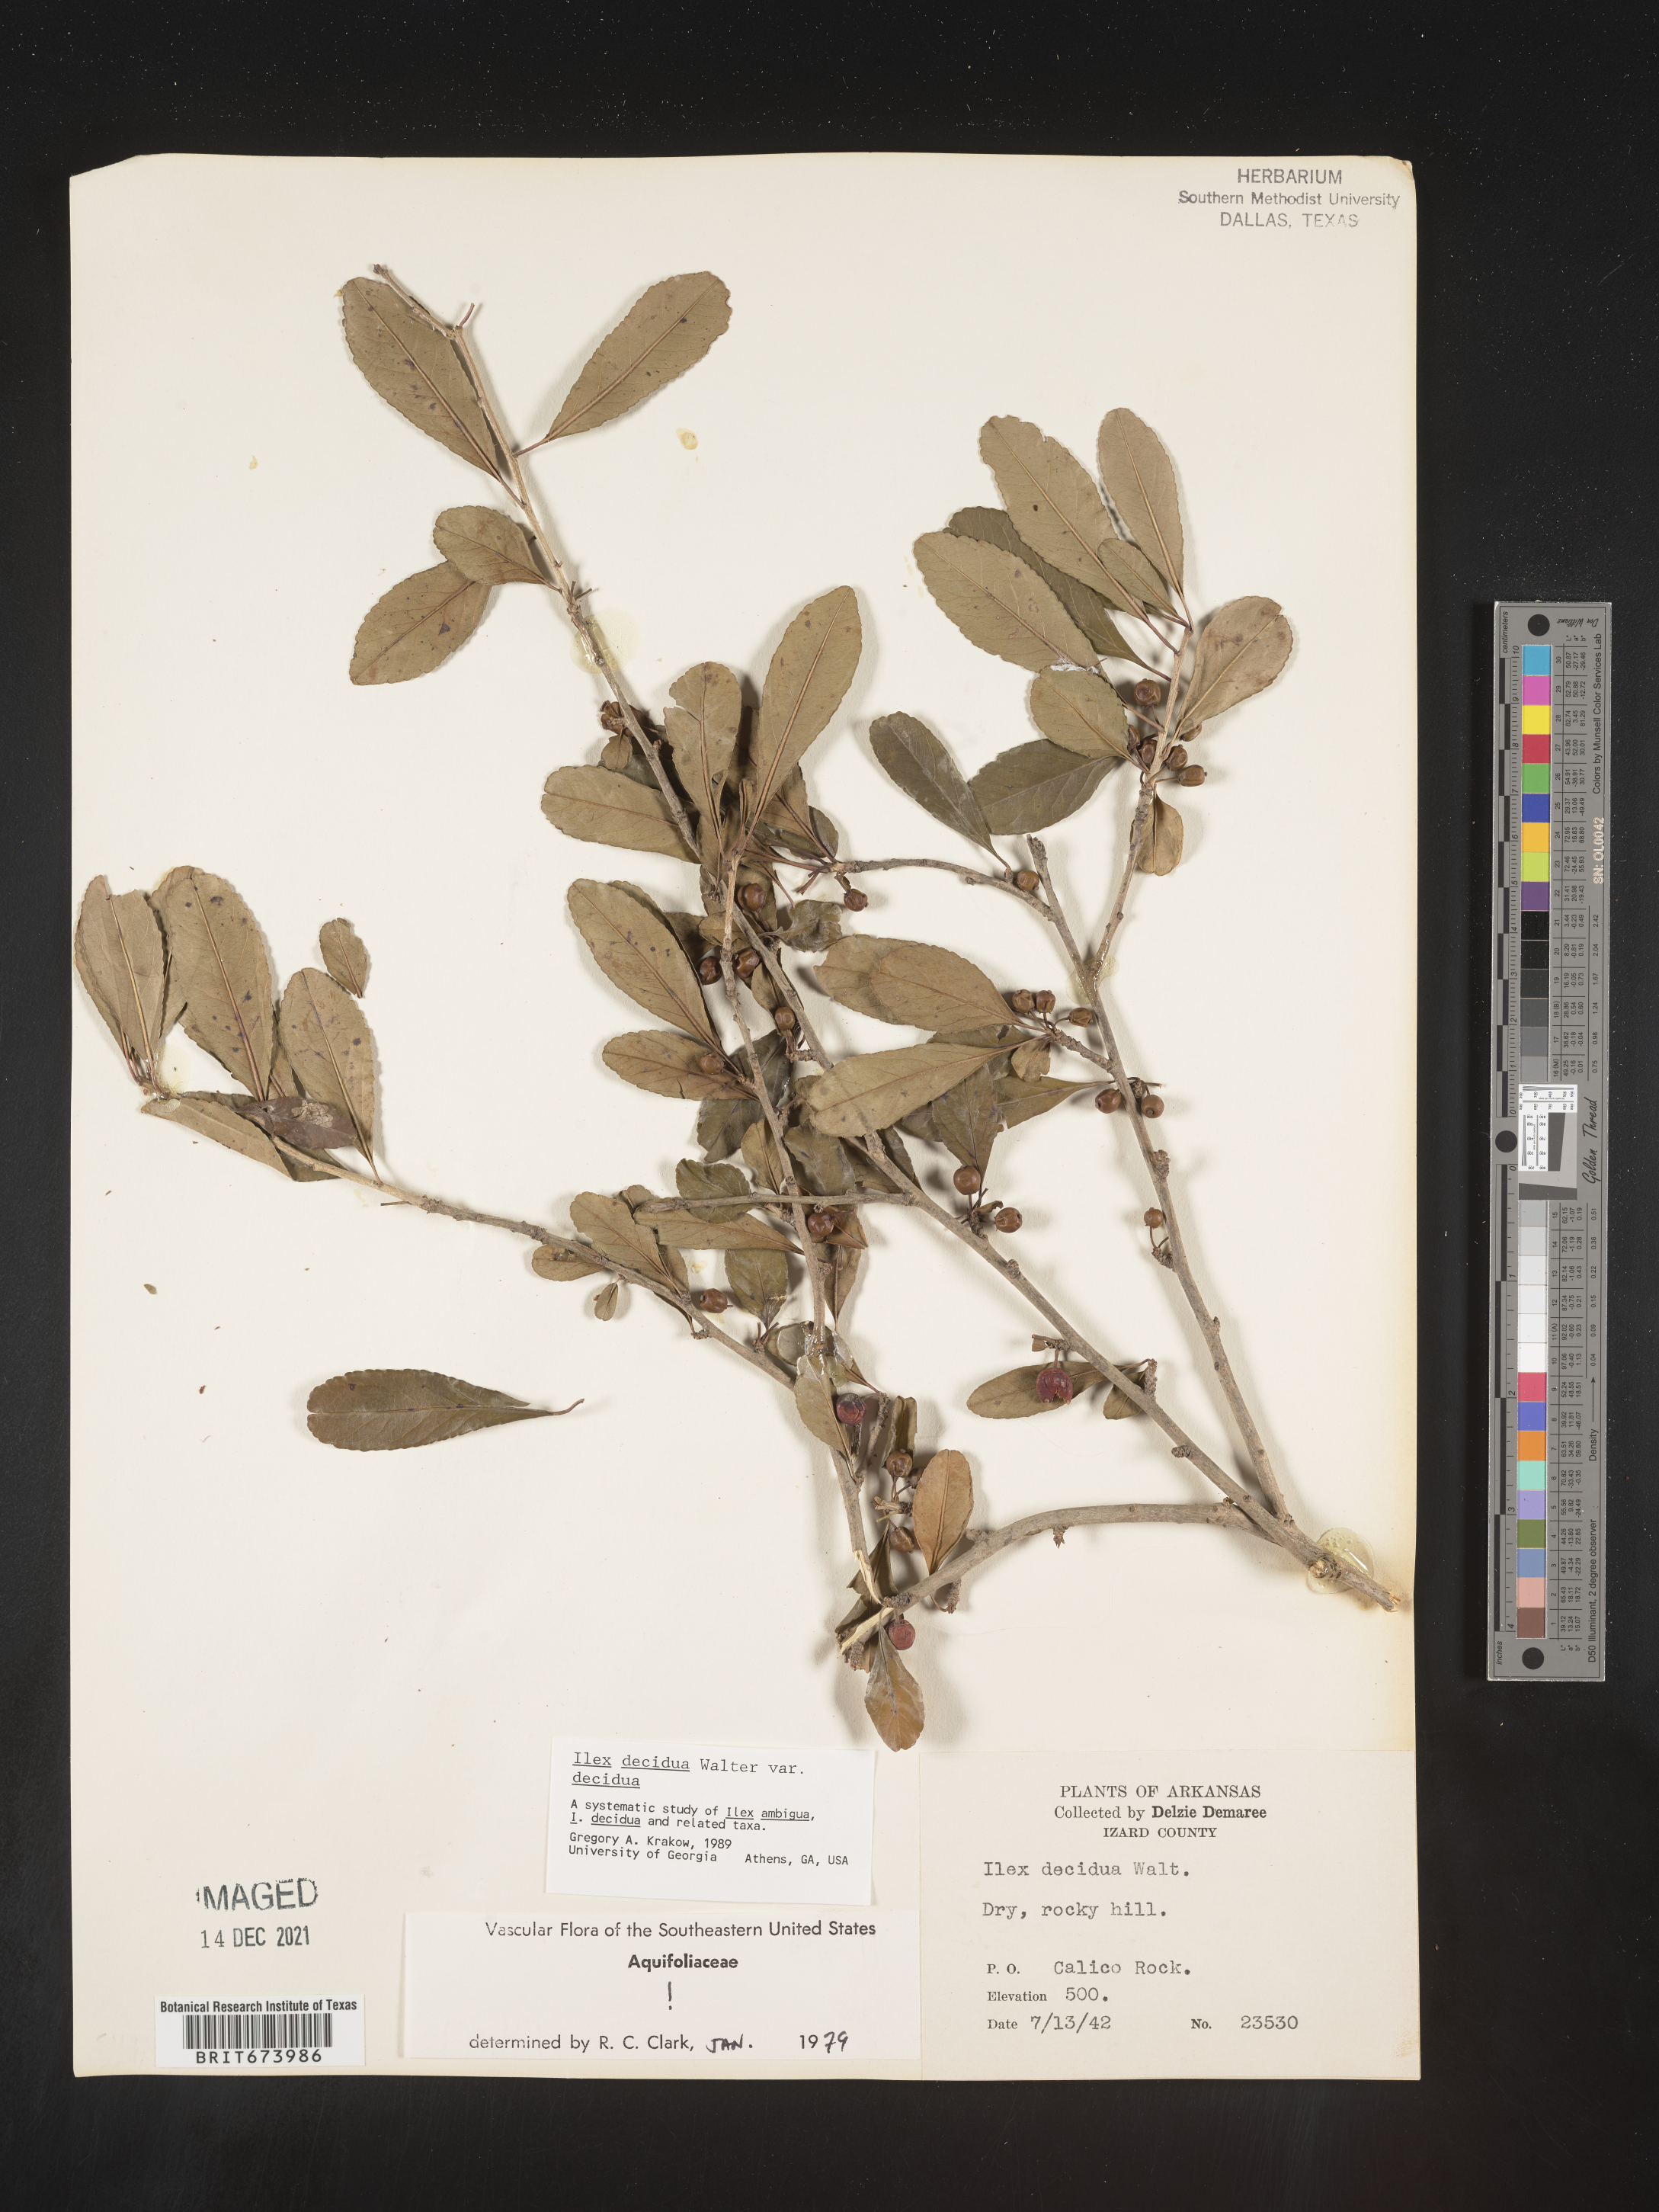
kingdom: Plantae
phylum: Tracheophyta
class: Magnoliopsida
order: Aquifoliales
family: Aquifoliaceae
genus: Ilex
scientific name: Ilex decidua
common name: Possum-haw
